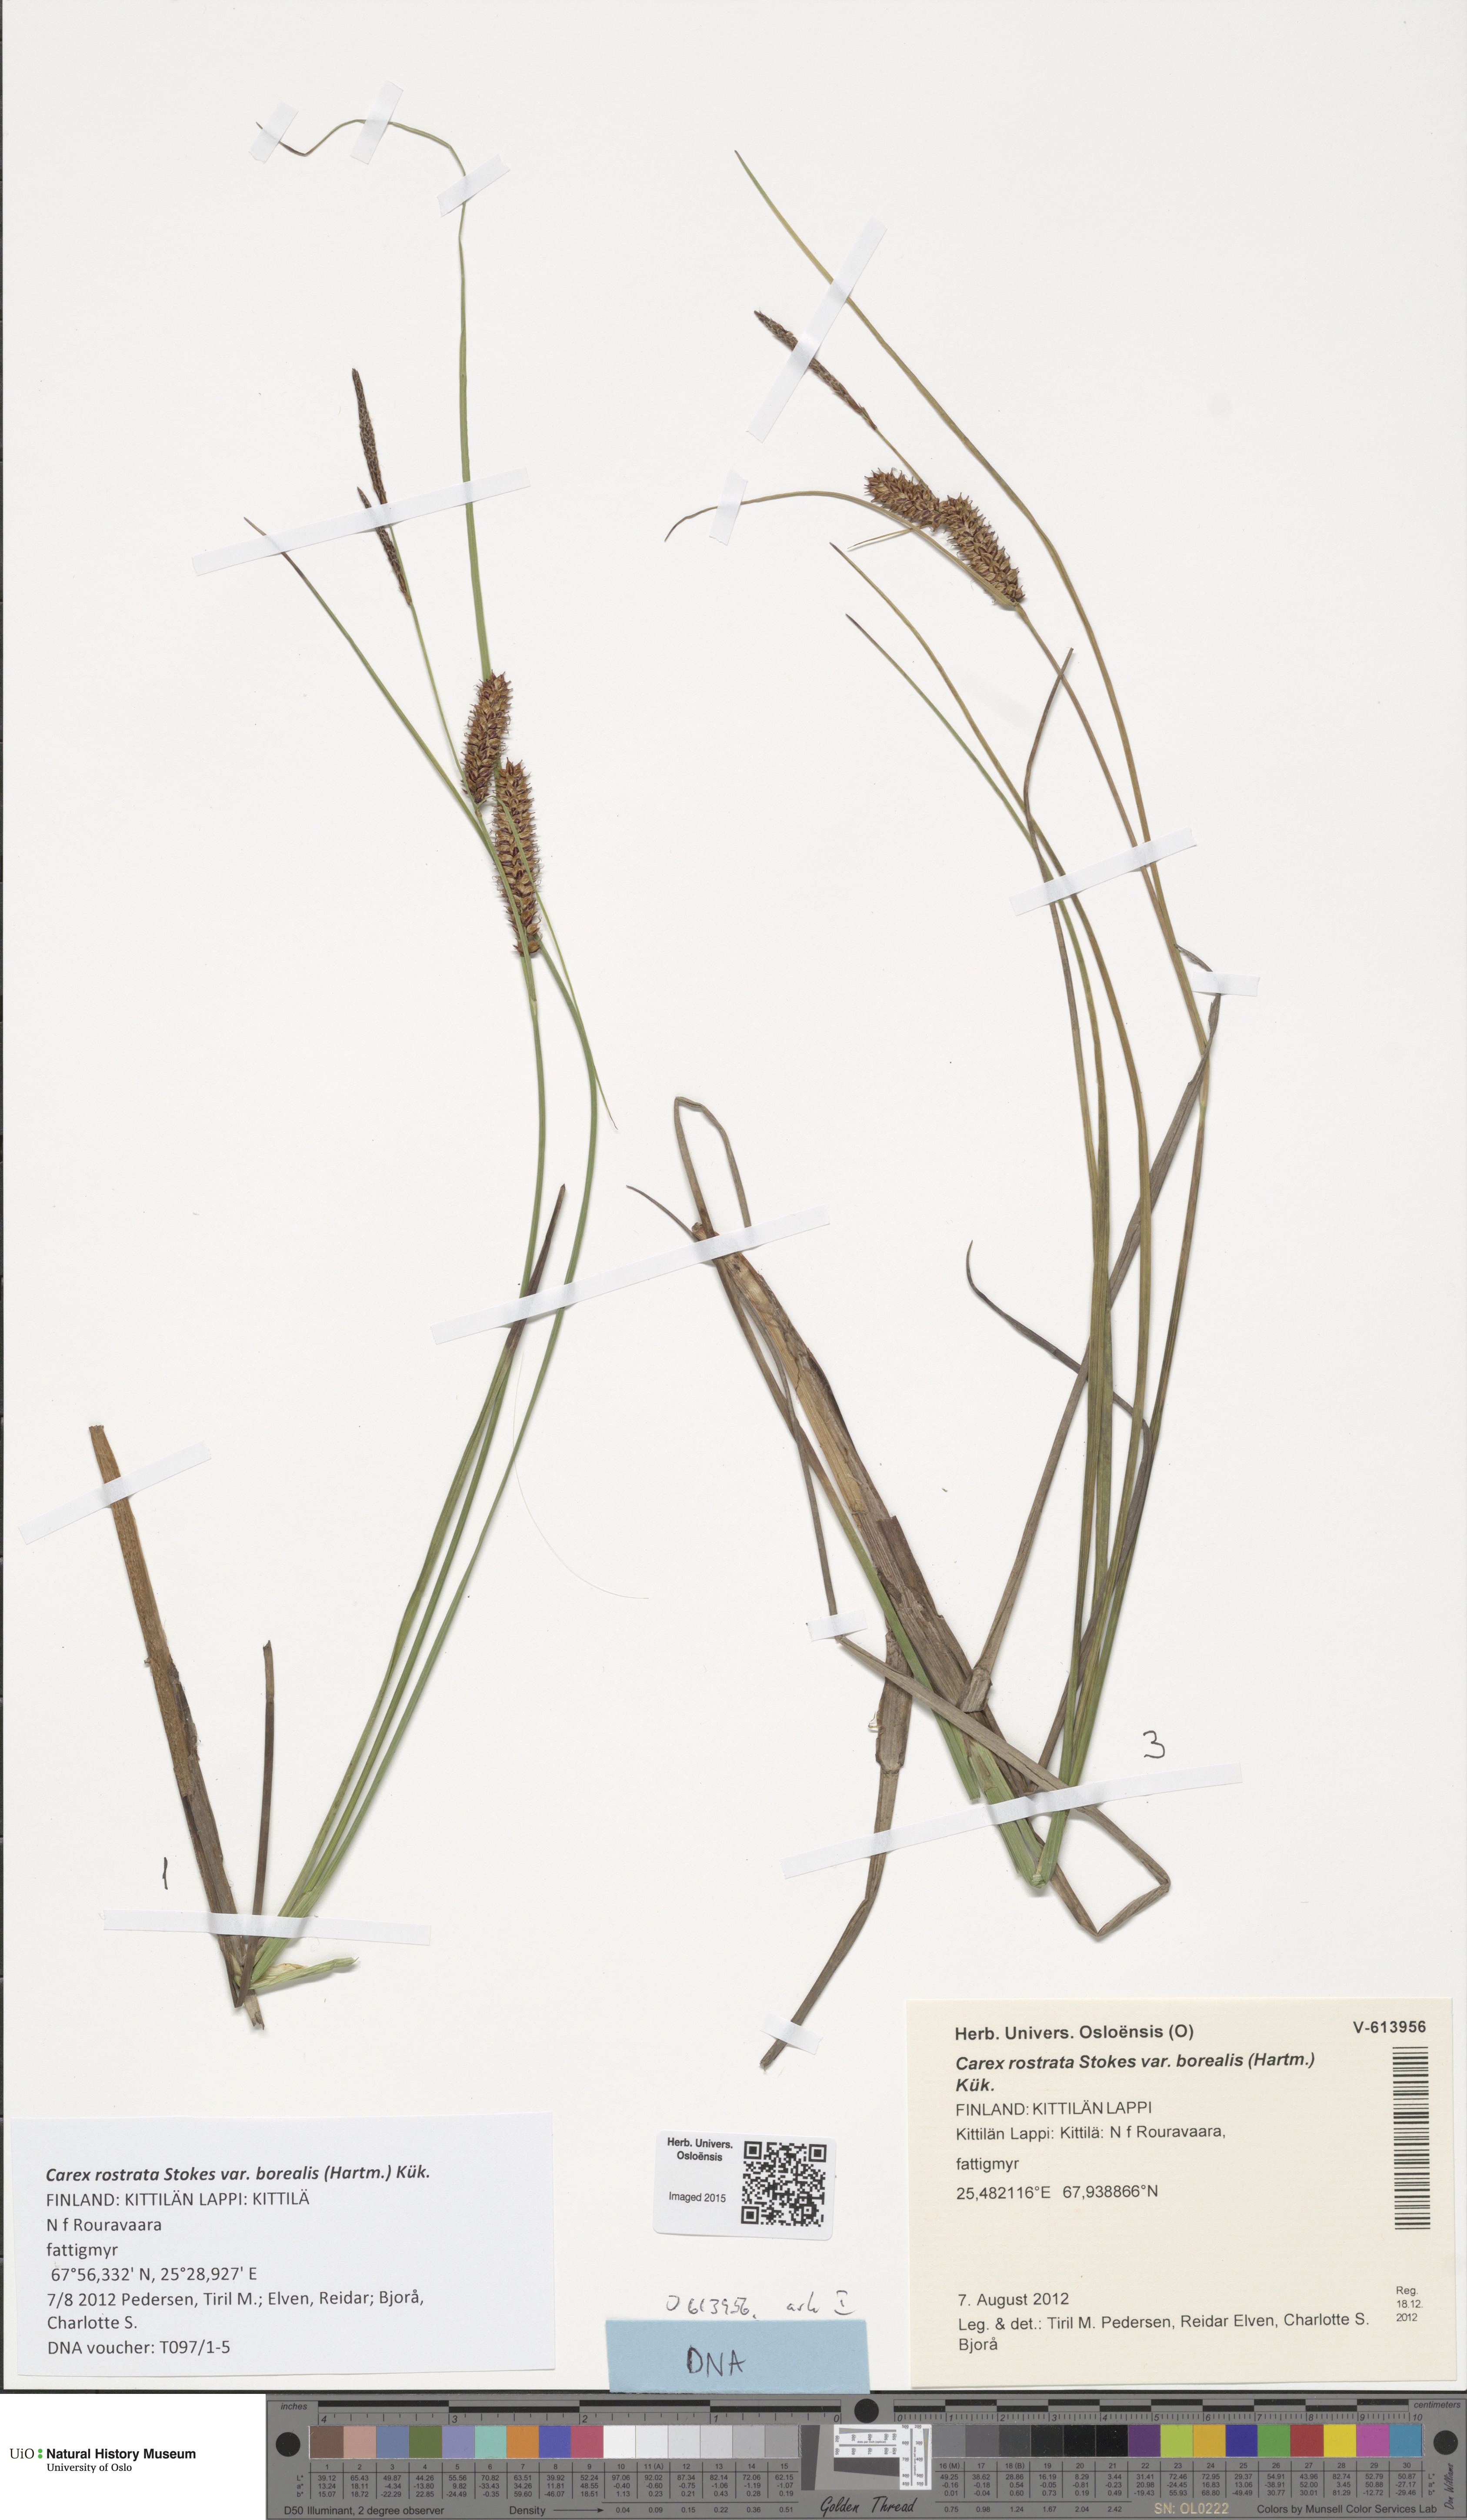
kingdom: Plantae
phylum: Tracheophyta
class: Liliopsida
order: Poales
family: Cyperaceae
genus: Carex
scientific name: Carex saamica
